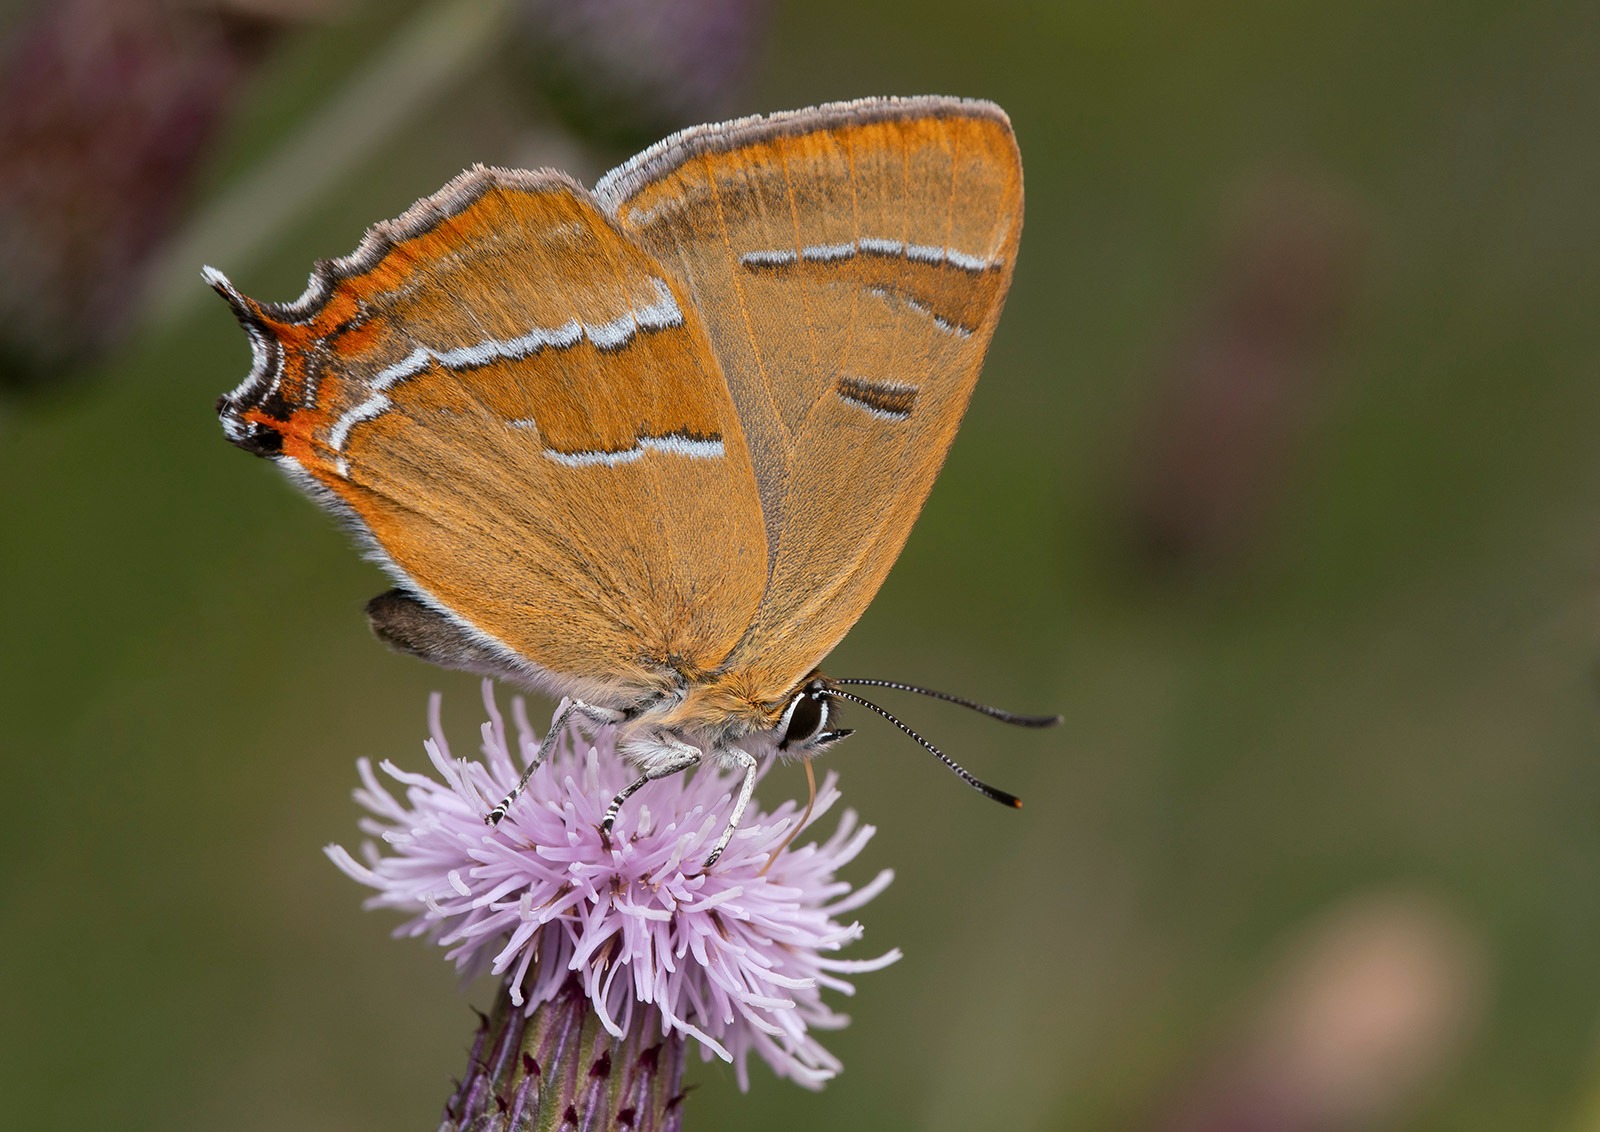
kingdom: Animalia
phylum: Arthropoda
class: Insecta
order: Lepidoptera
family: Lycaenidae
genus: Thecla
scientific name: Thecla betulae
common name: Guldhale
